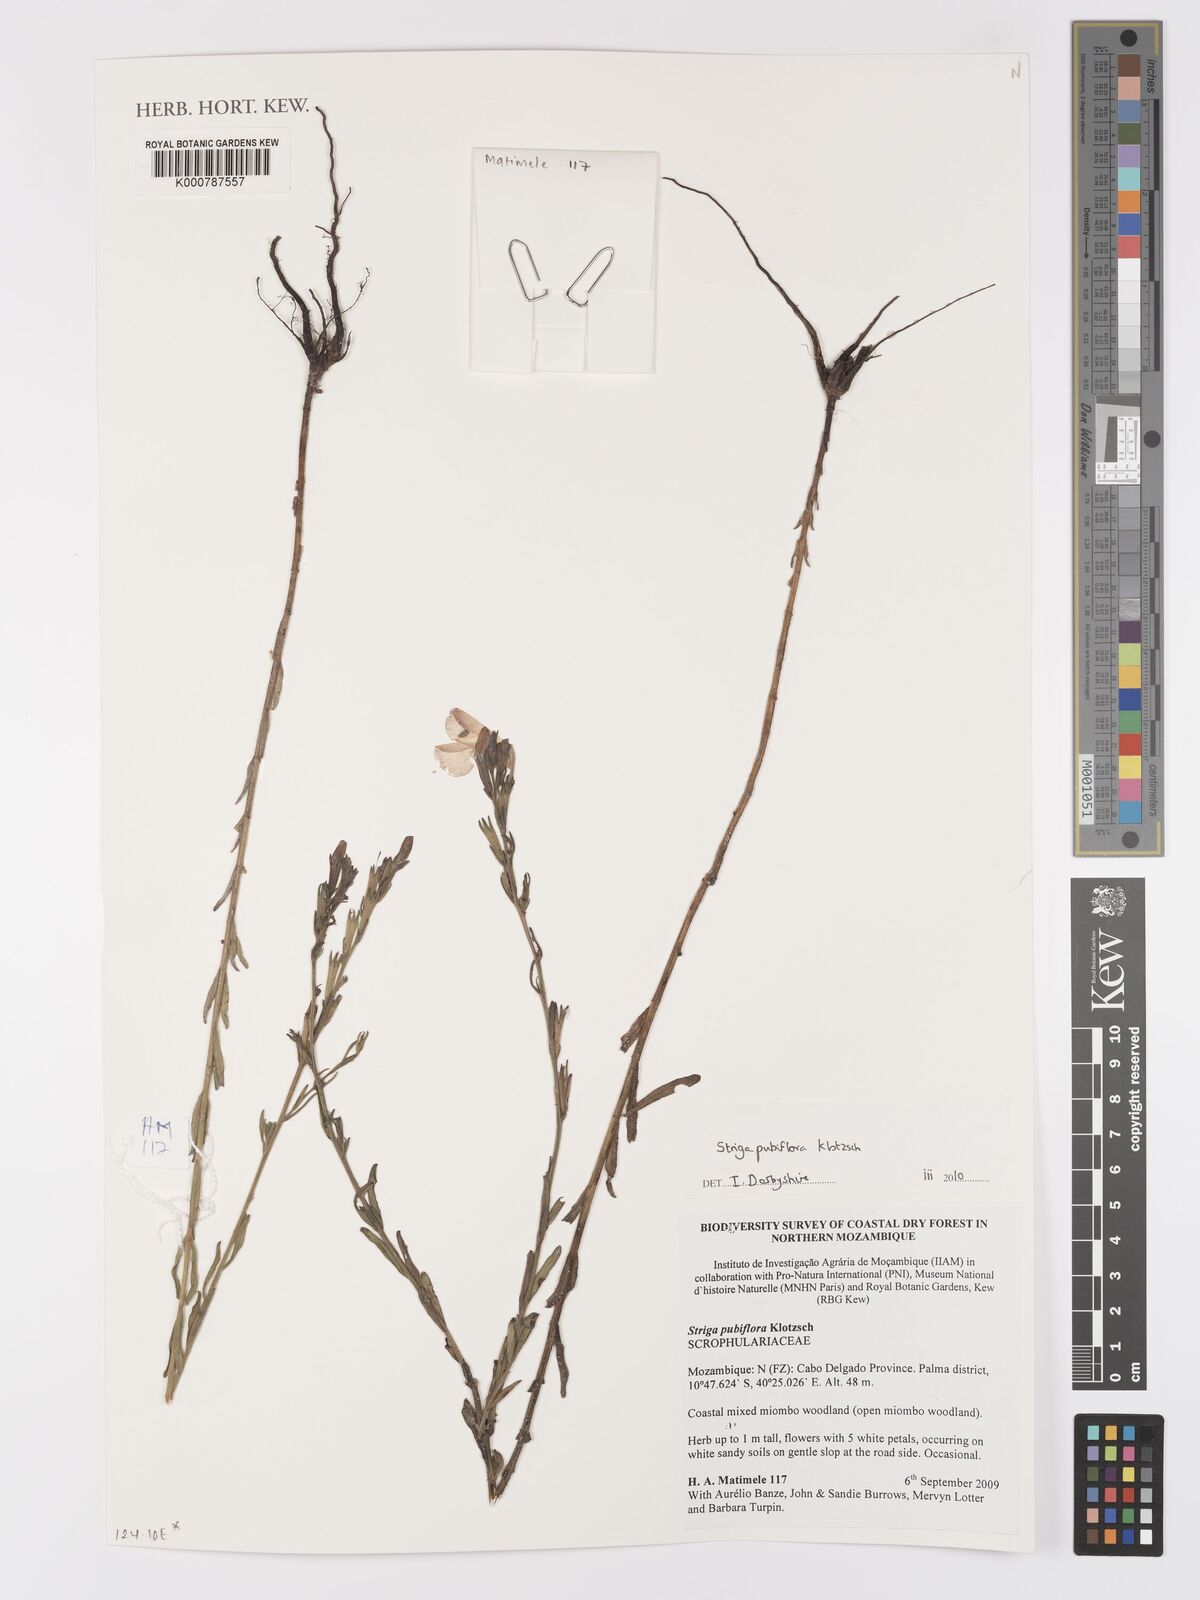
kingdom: Plantae
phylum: Tracheophyta
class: Liliopsida
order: Zingiberales
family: Costaceae
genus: Colobogynium
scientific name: Colobogynium variegatum
